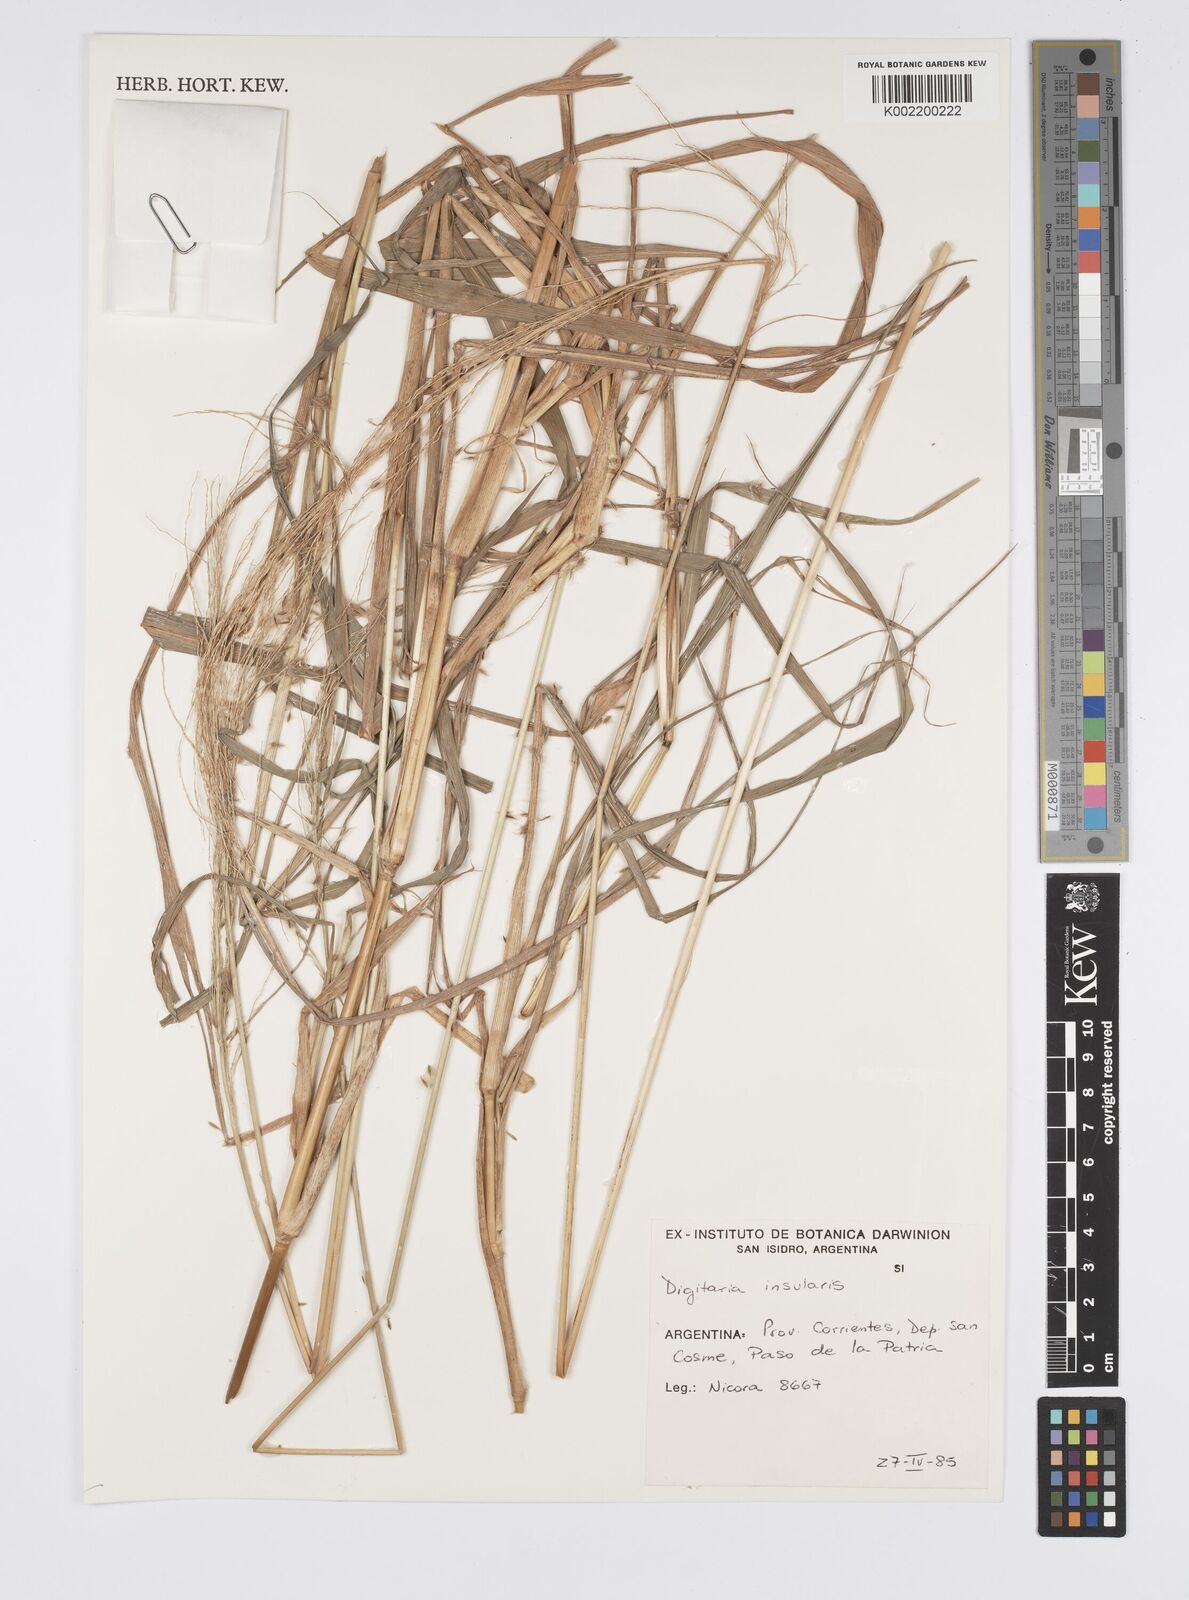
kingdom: Plantae
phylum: Tracheophyta
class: Liliopsida
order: Poales
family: Poaceae
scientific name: Poaceae
